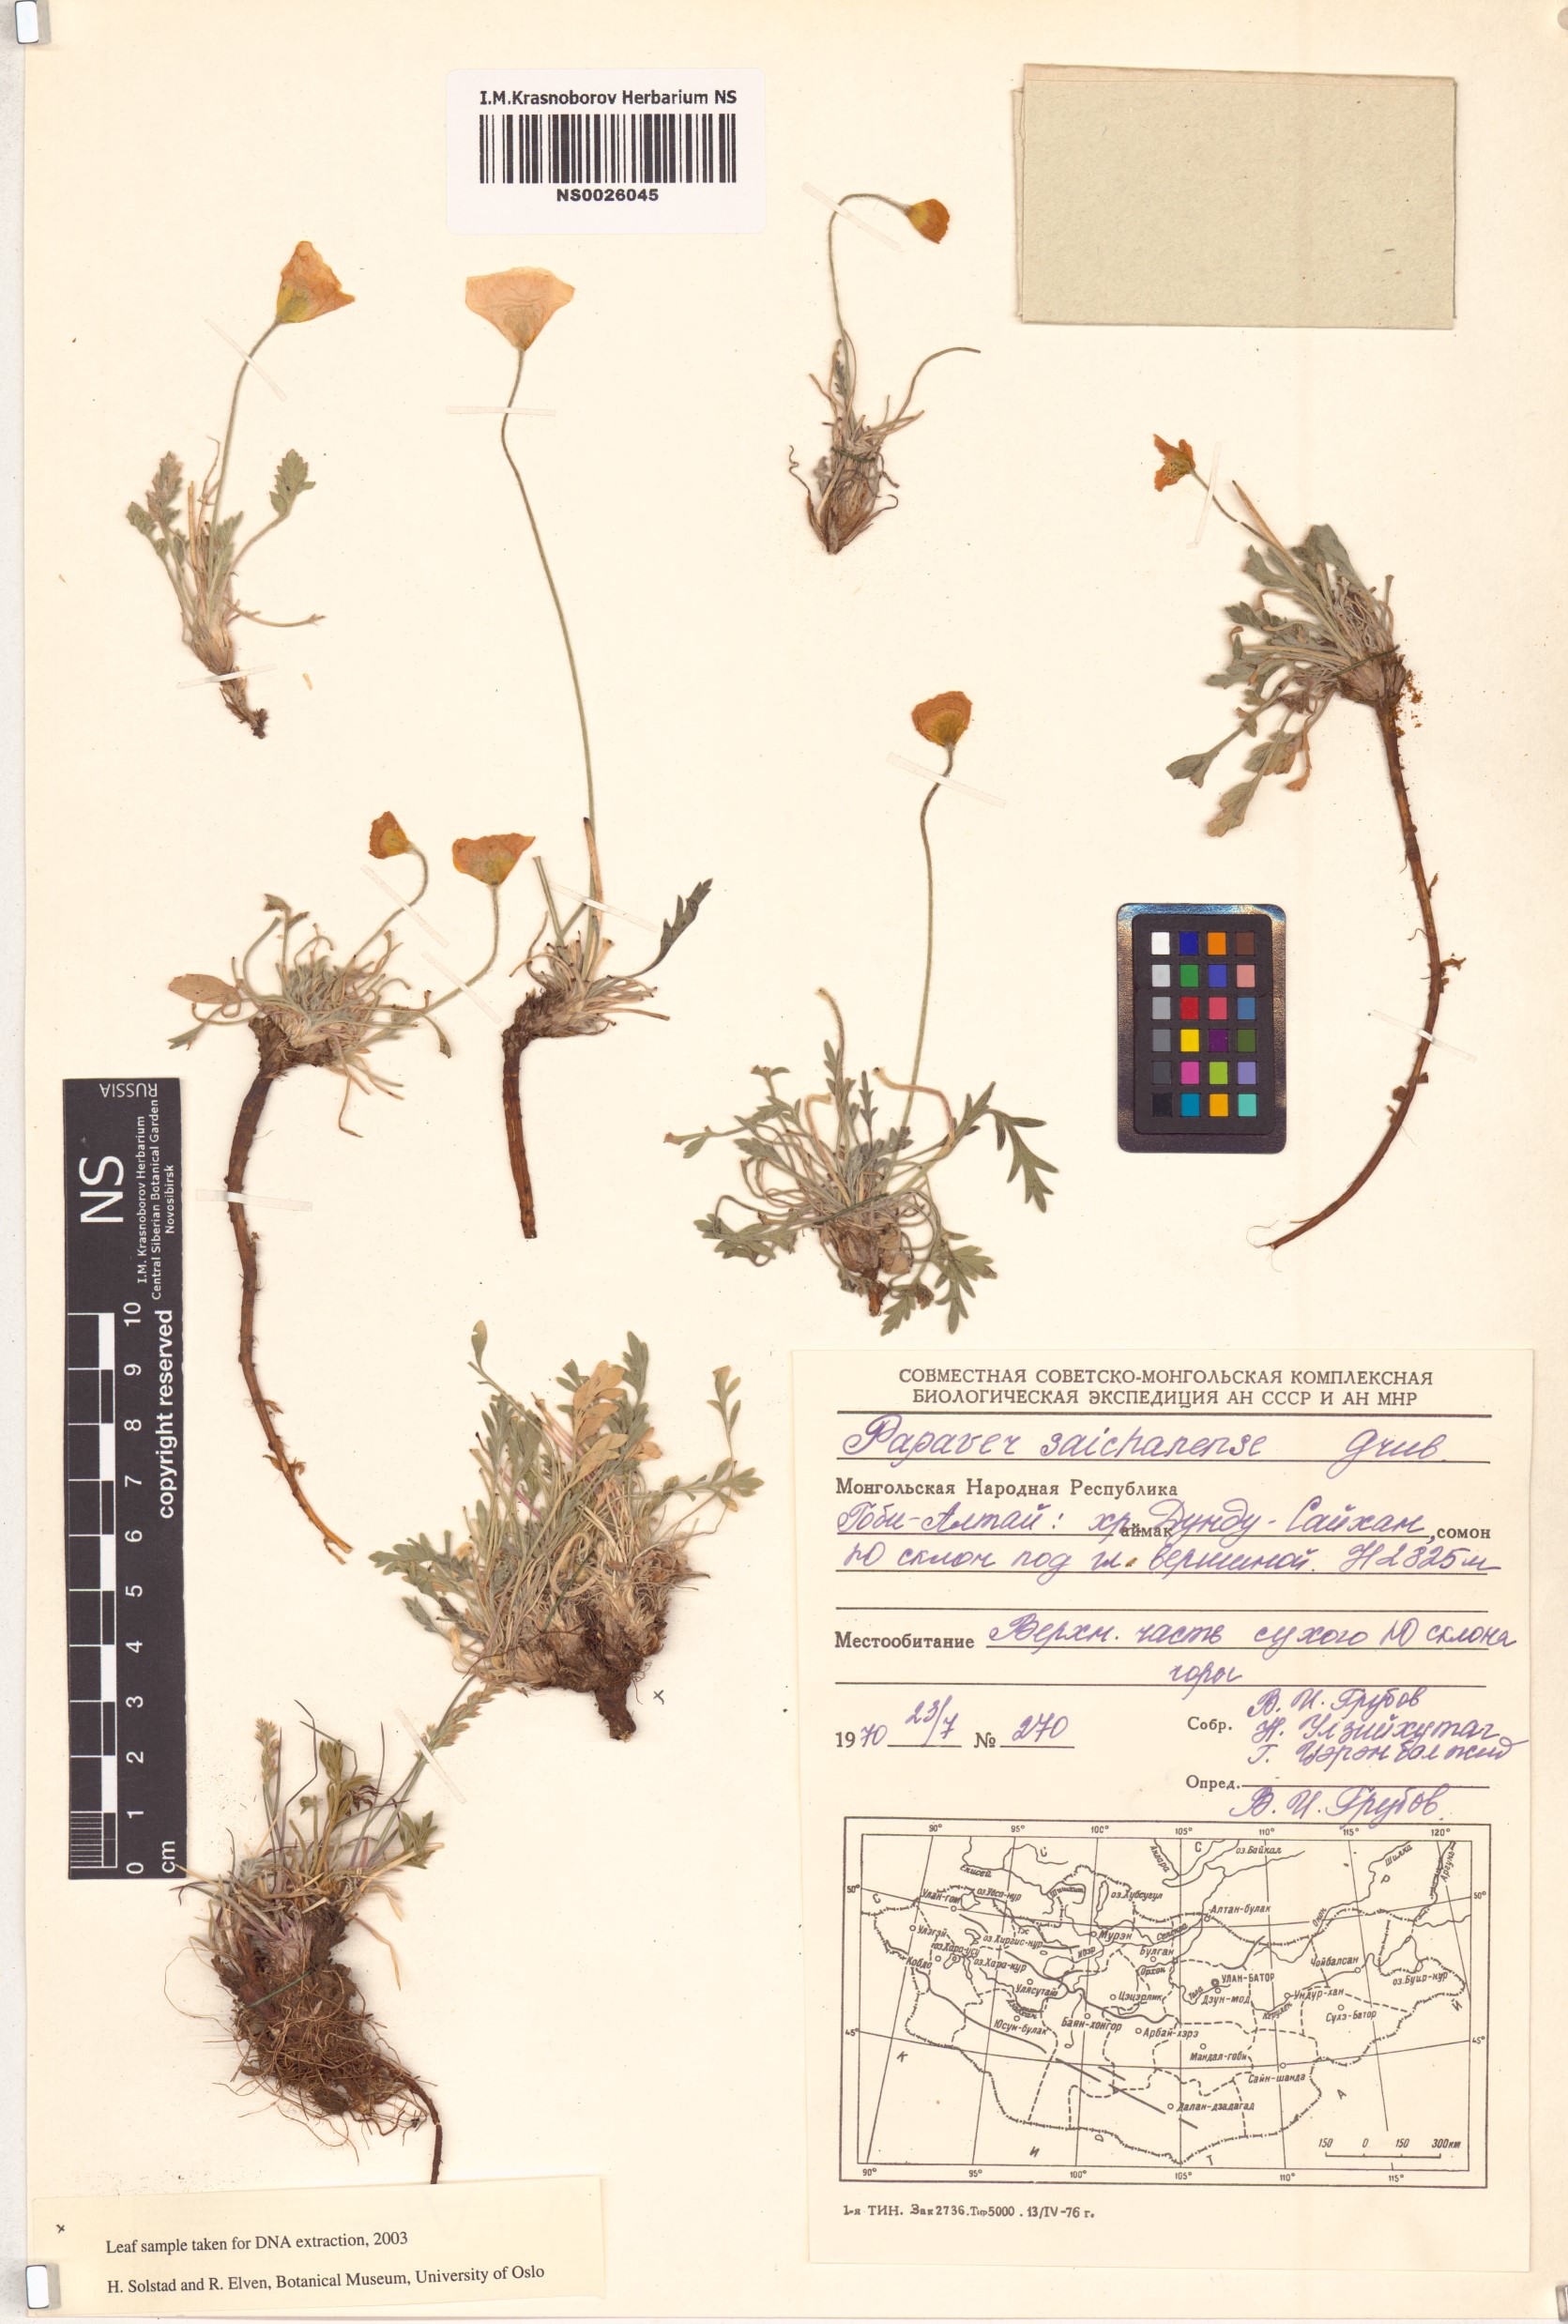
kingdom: Plantae
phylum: Tracheophyta
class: Magnoliopsida
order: Ranunculales
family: Papaveraceae
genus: Papaver
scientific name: Papaver rubroaurantiacum
